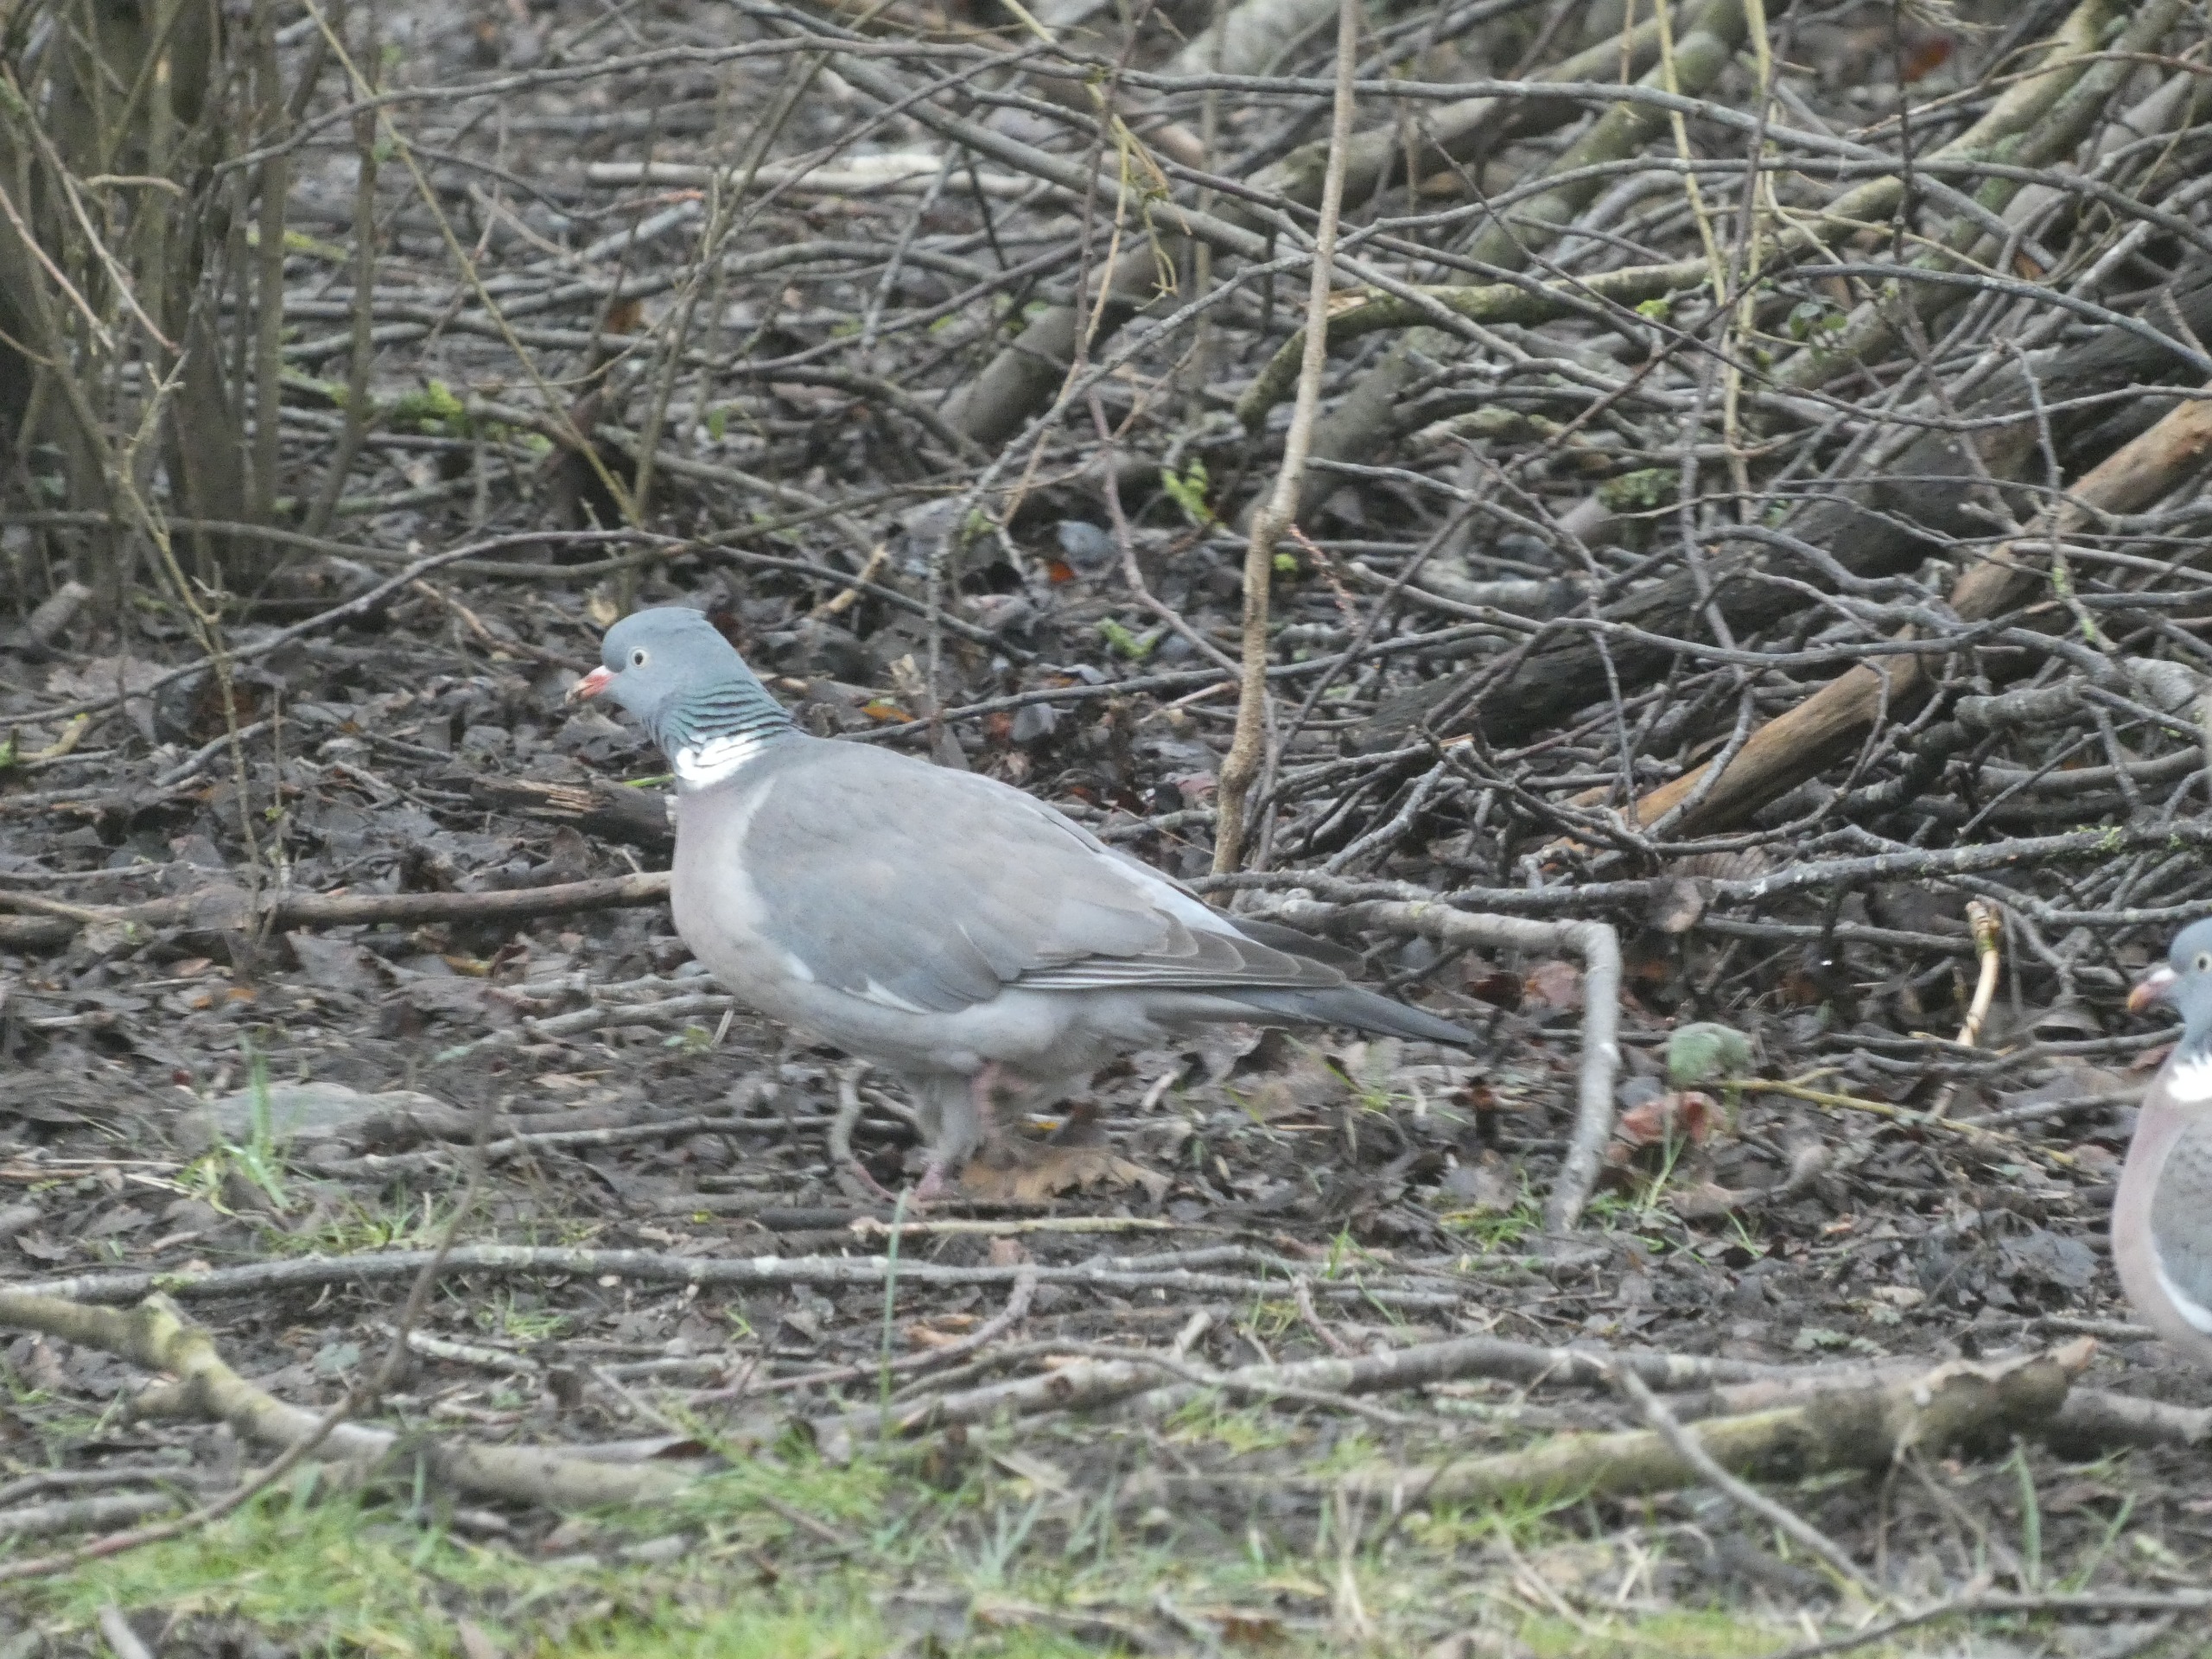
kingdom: Animalia
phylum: Chordata
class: Aves
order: Columbiformes
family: Columbidae
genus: Columba
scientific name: Columba palumbus
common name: Ringdue
